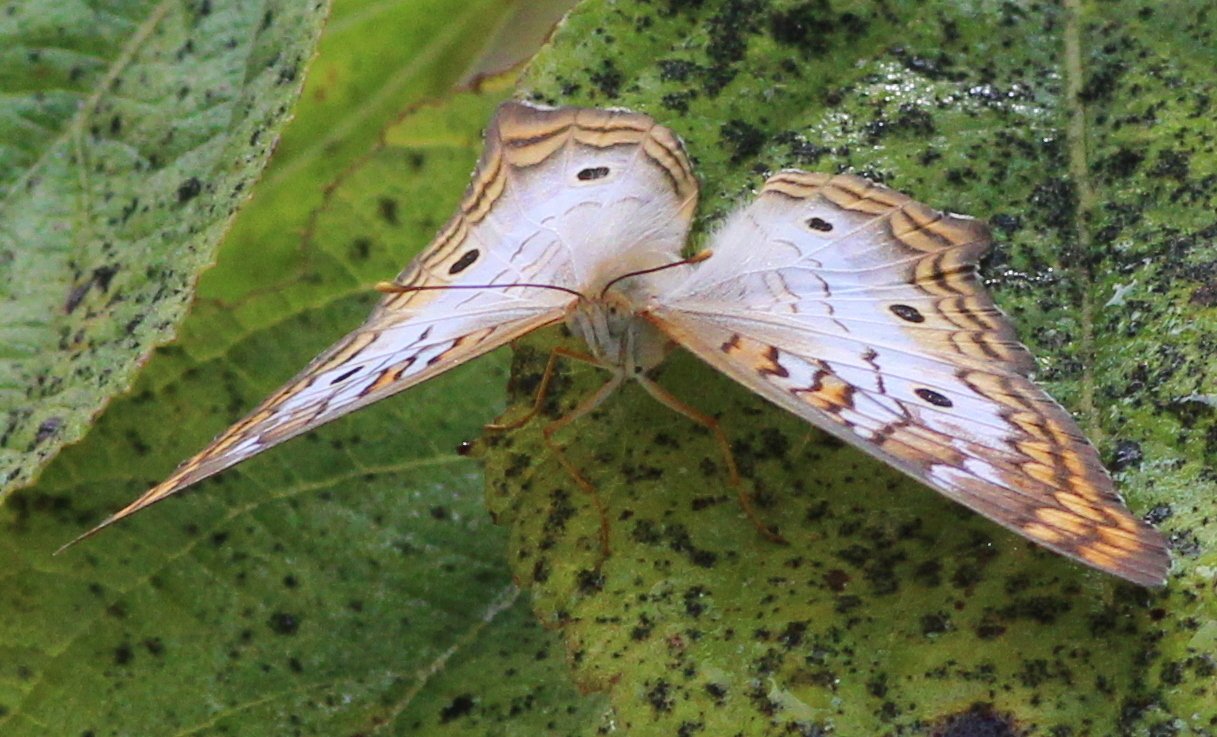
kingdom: Animalia
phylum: Arthropoda
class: Insecta
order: Lepidoptera
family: Nymphalidae
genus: Anartia
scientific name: Anartia jatrophae
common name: White Peacock
